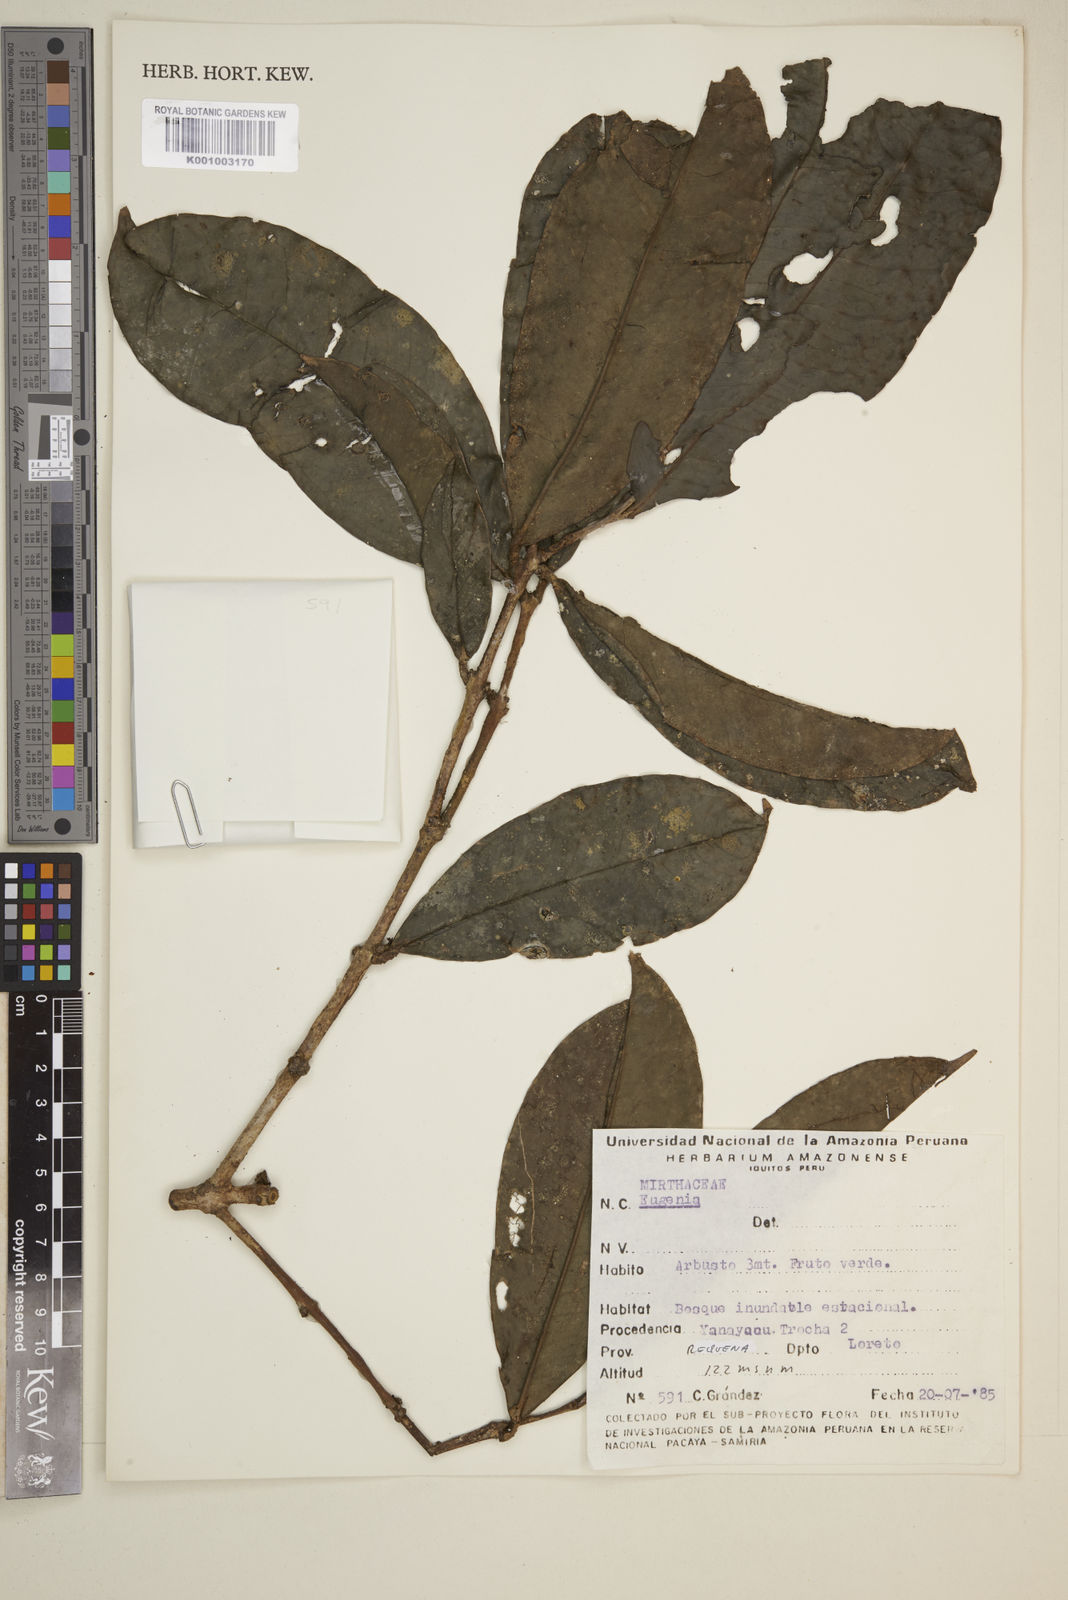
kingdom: Plantae
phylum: Tracheophyta
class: Magnoliopsida
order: Myrtales
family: Myrtaceae
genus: Eugenia
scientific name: Eugenia
